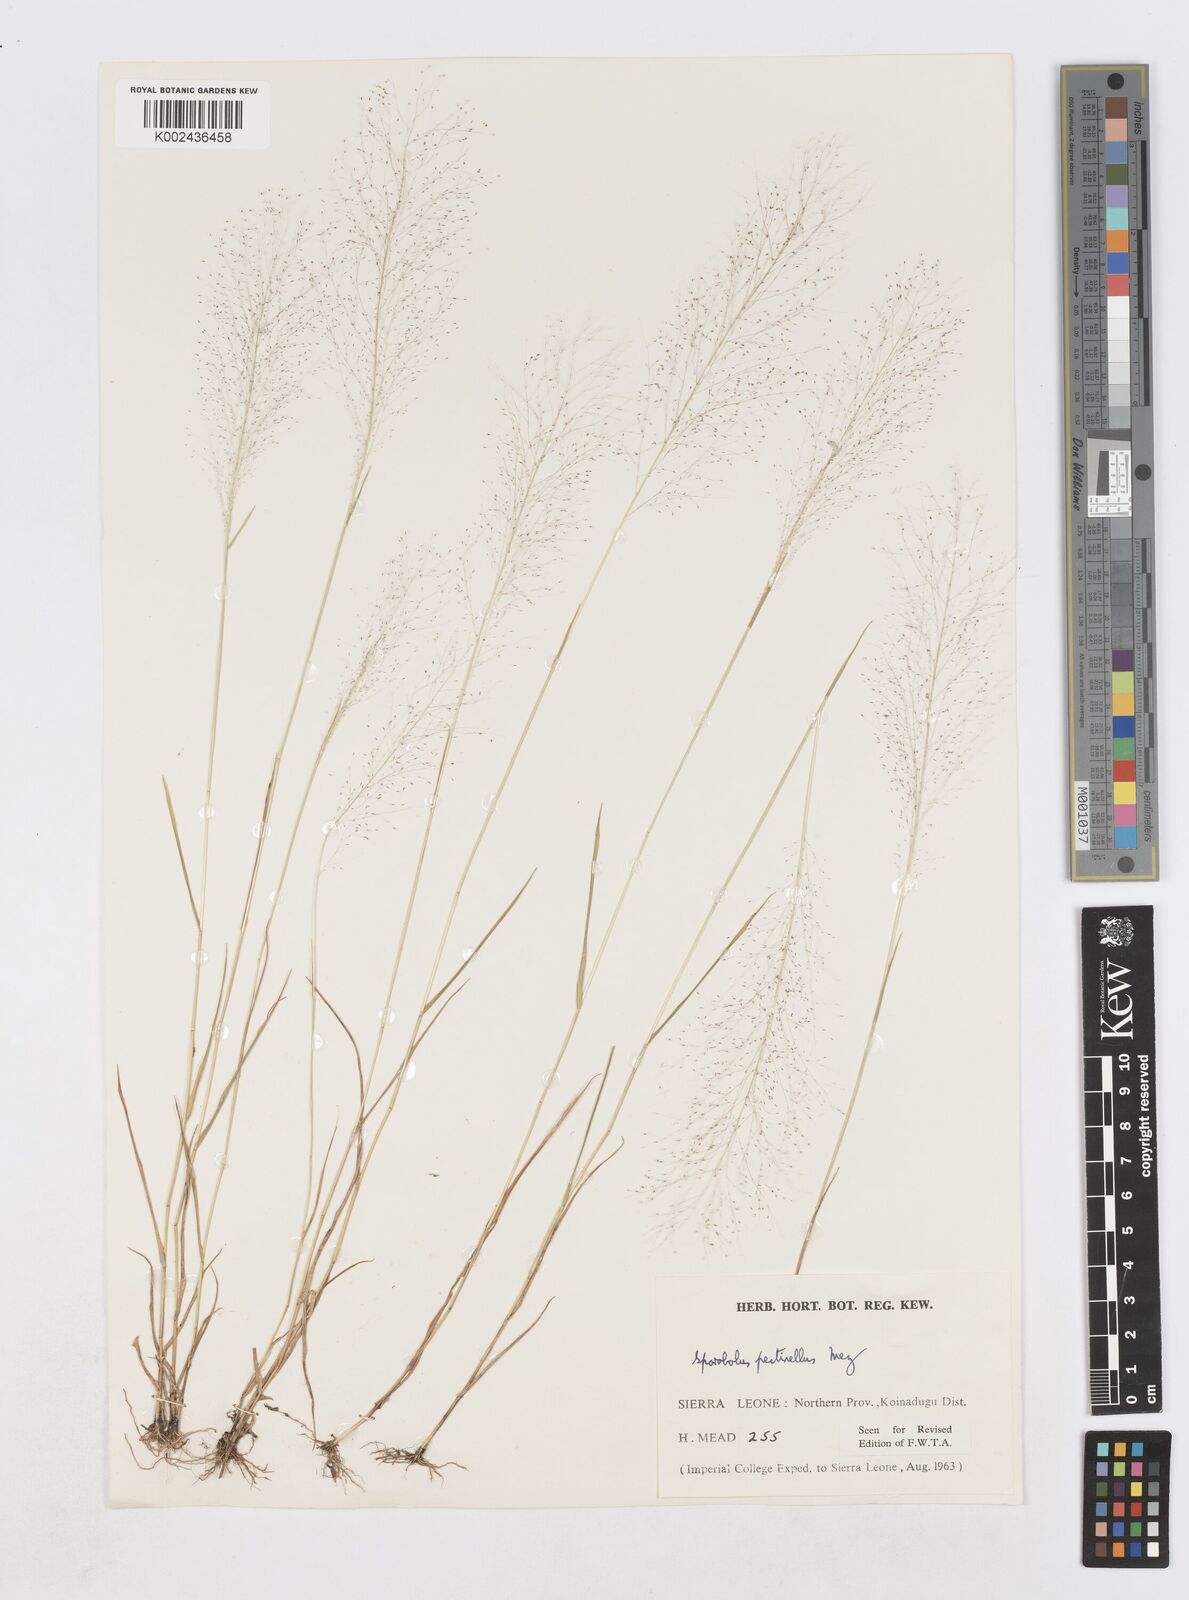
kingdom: Plantae
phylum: Tracheophyta
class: Liliopsida
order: Poales
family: Poaceae
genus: Sporobolus
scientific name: Sporobolus pectinellus
